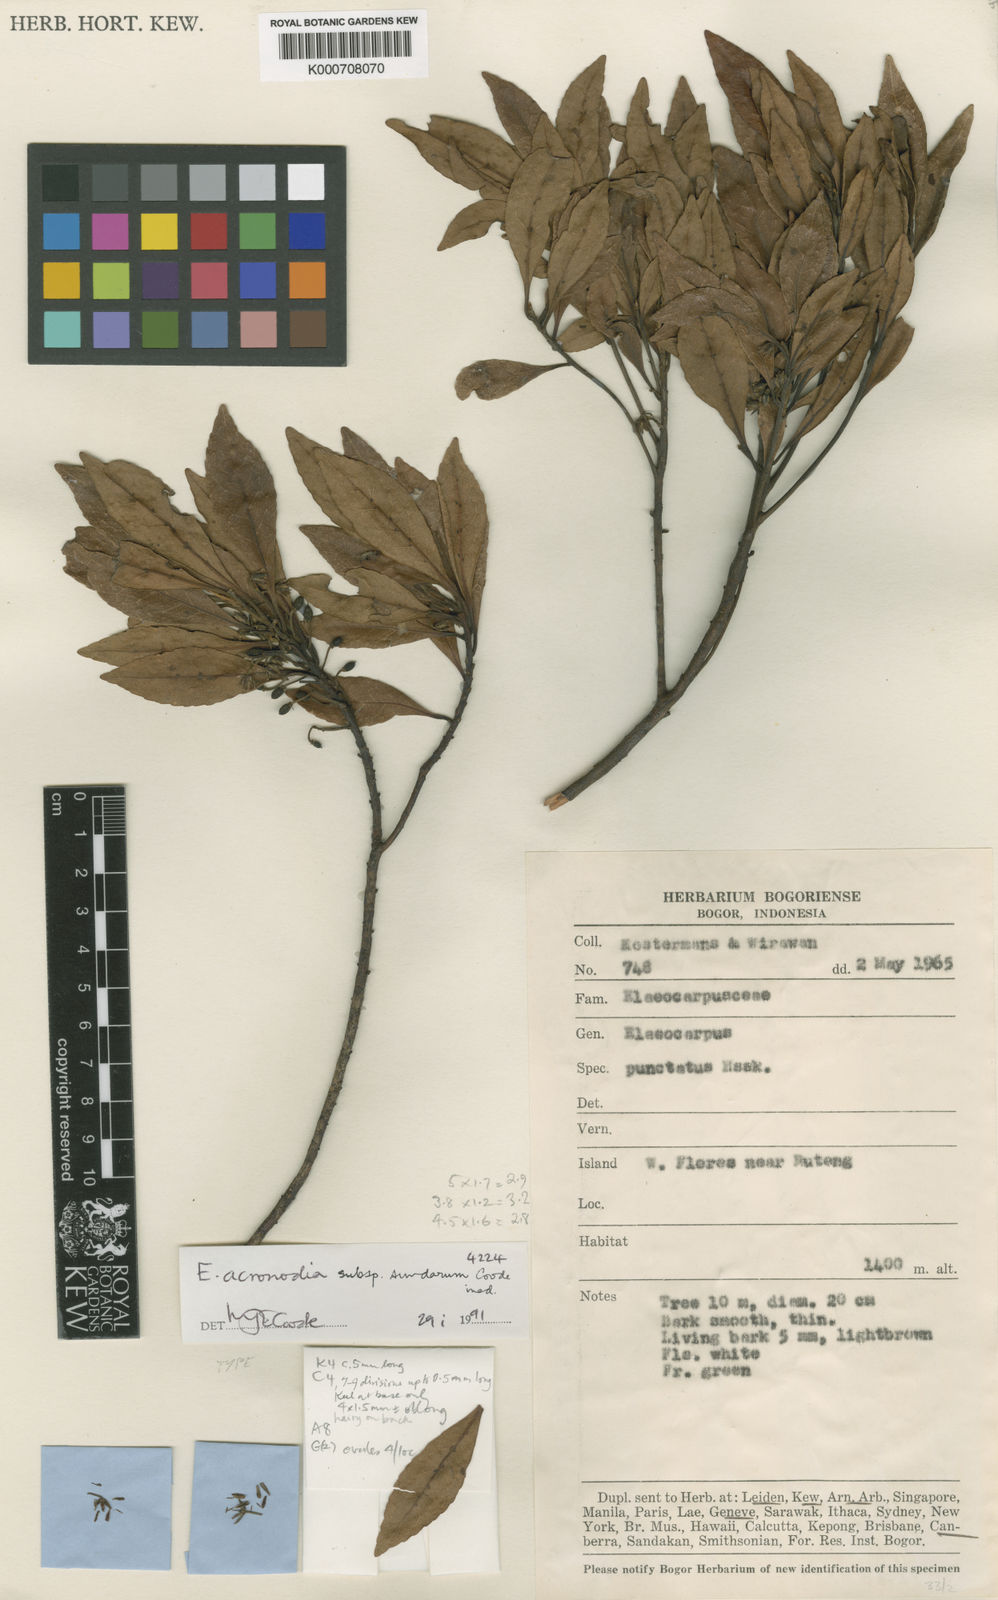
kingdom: Plantae
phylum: Tracheophyta
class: Magnoliopsida
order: Oxalidales
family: Elaeocarpaceae
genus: Elaeocarpus
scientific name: Elaeocarpus acronodia
